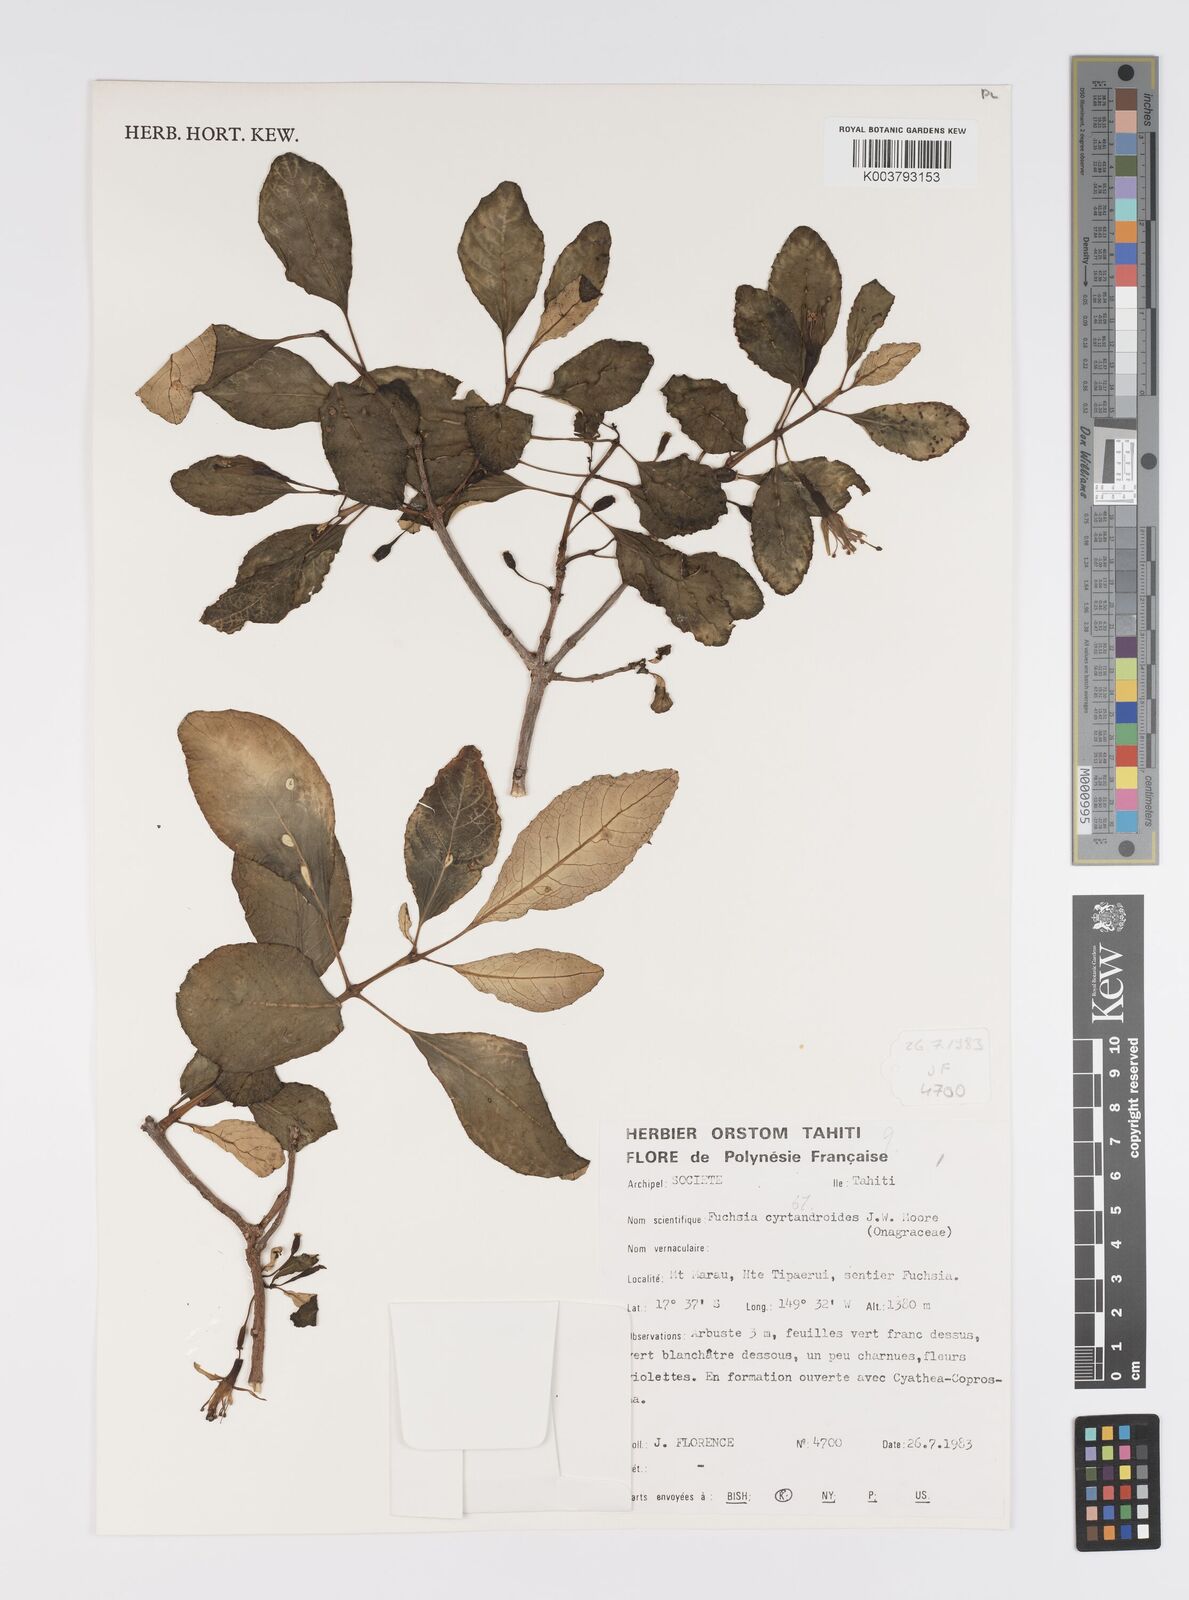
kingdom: Plantae
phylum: Tracheophyta
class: Magnoliopsida
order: Myrtales
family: Onagraceae
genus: Fuchsia
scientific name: Fuchsia cyrtandroides
